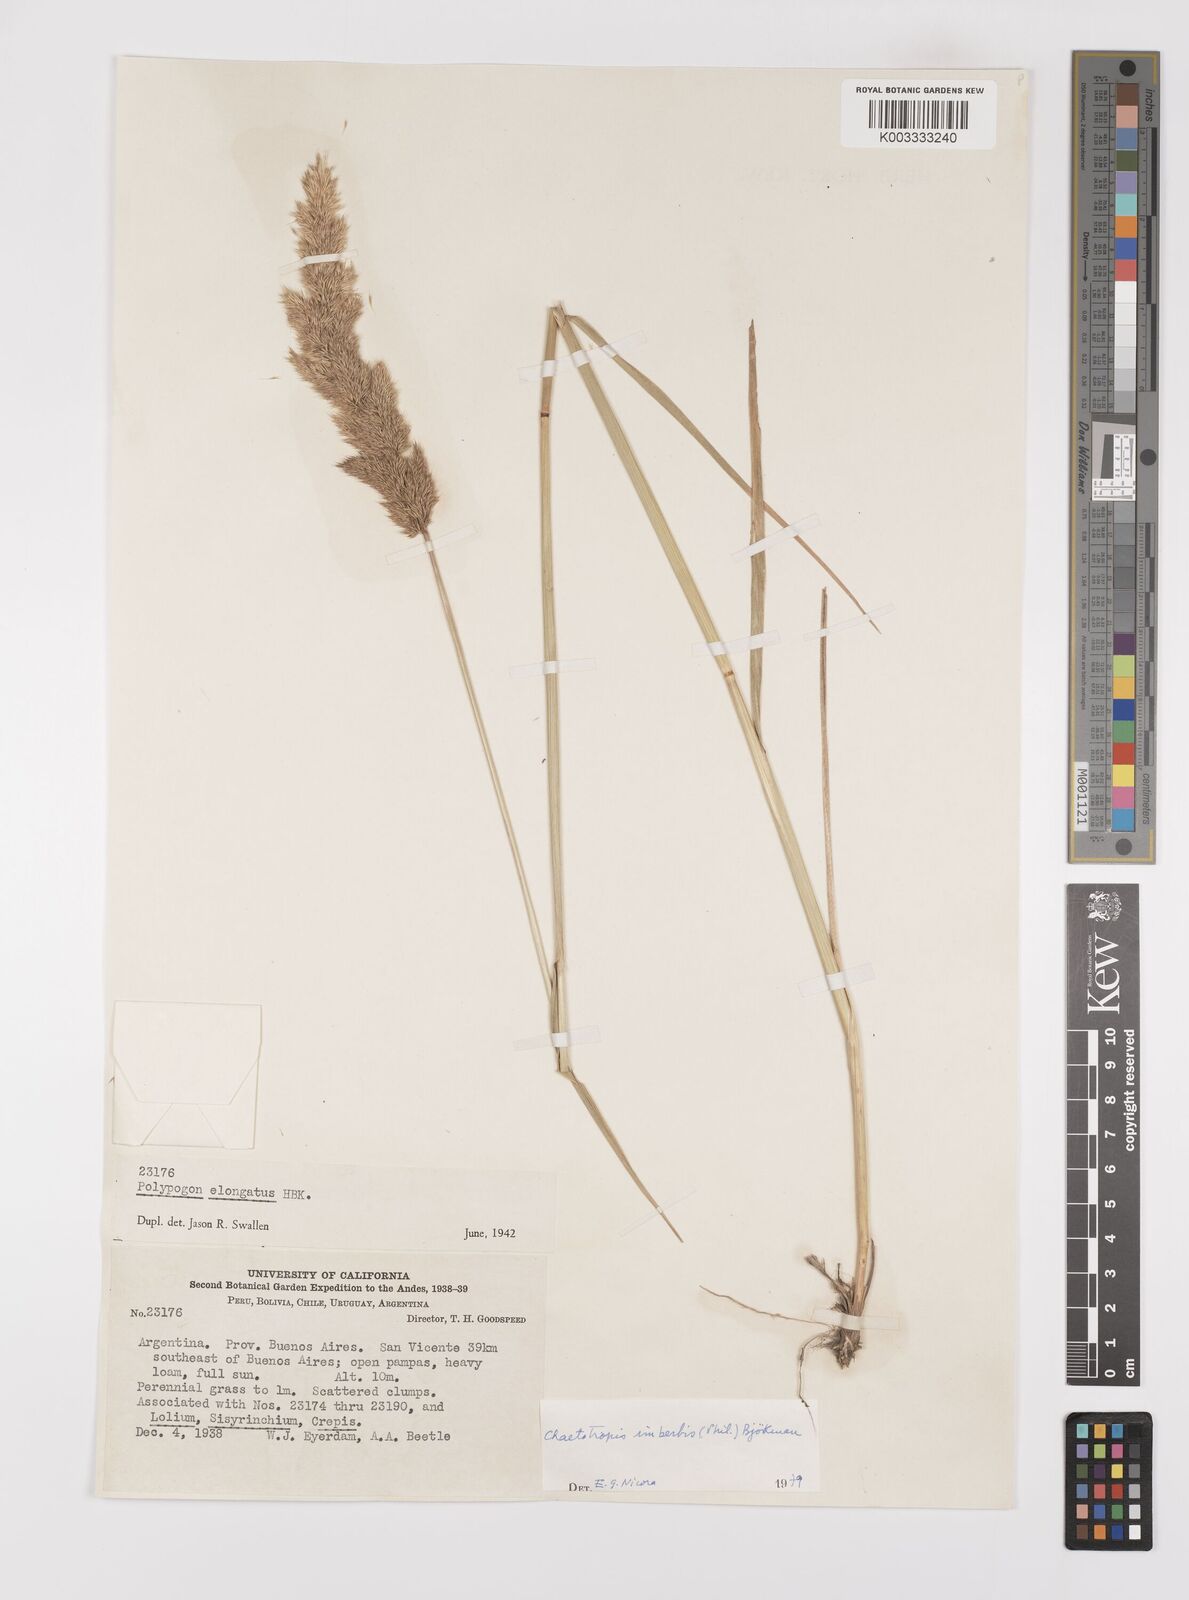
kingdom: Plantae
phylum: Tracheophyta
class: Liliopsida
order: Poales
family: Poaceae
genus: Polypogon
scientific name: Polypogon imberbis
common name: Beardless rabbitsfoot grass
